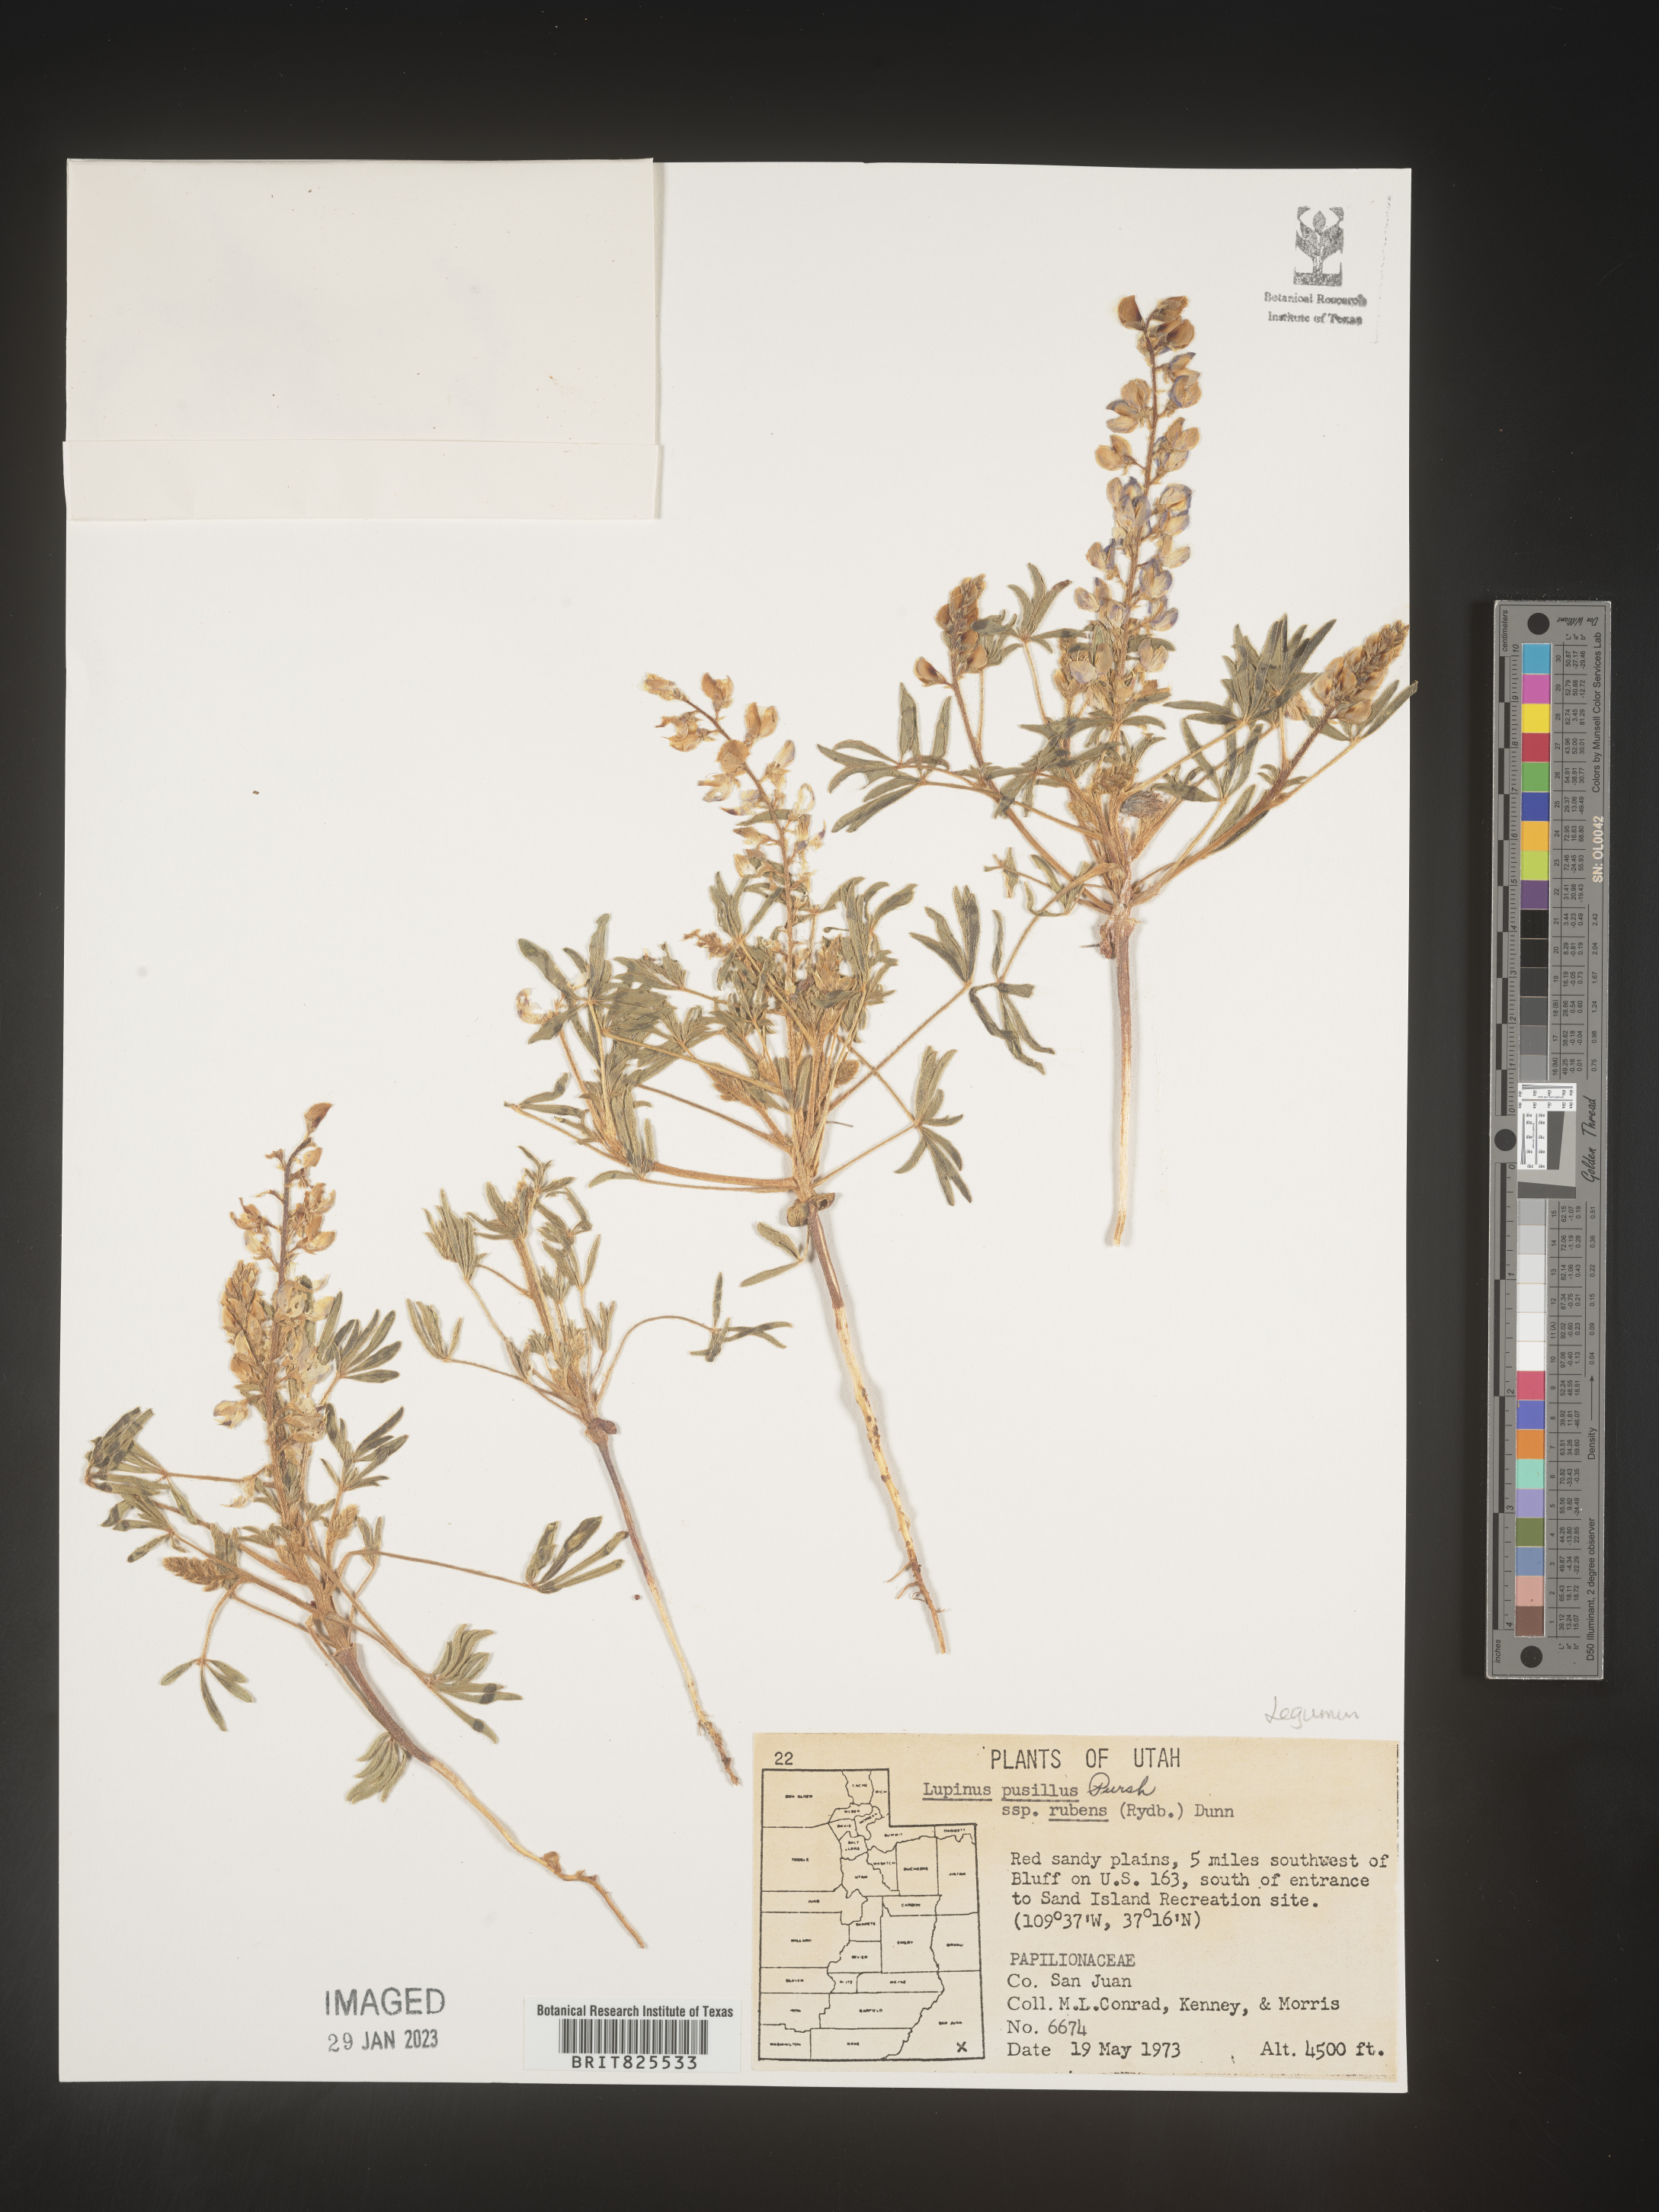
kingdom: Plantae
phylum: Tracheophyta
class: Magnoliopsida
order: Fabales
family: Fabaceae
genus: Lupinus
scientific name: Lupinus
